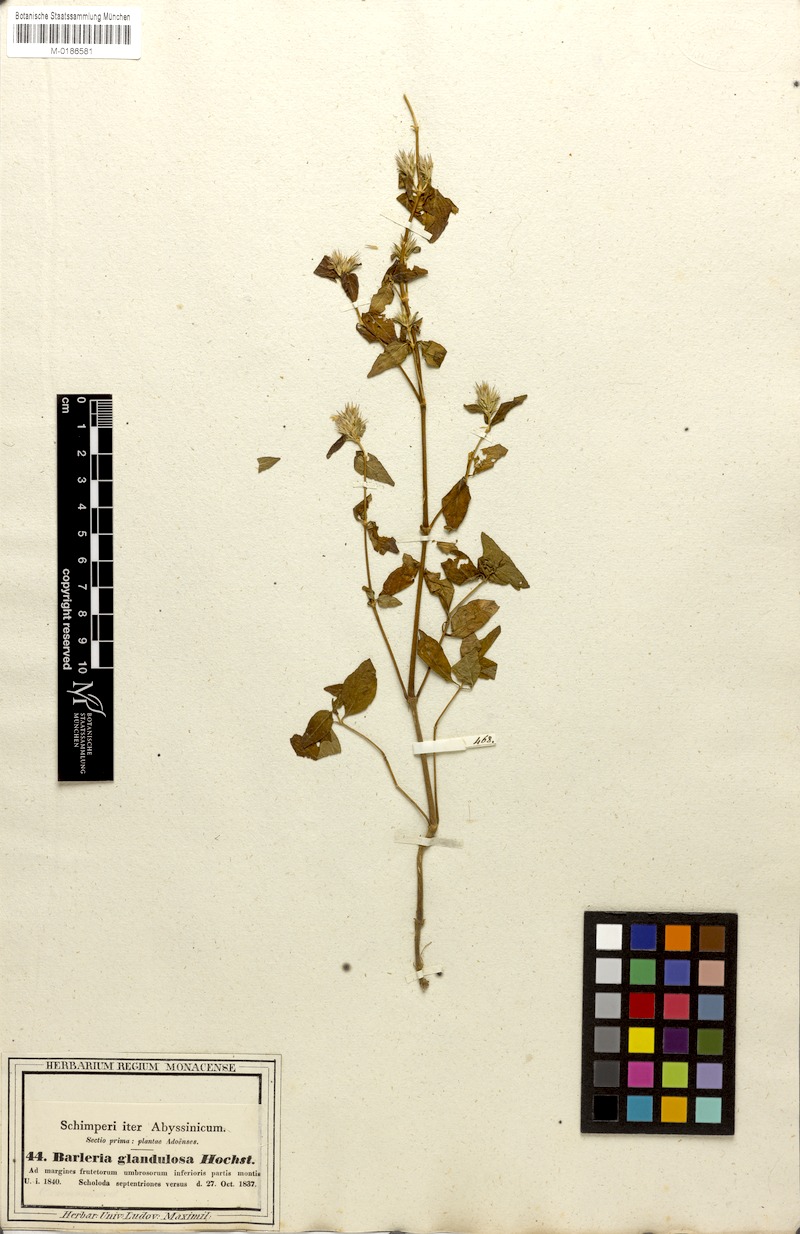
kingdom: Plantae
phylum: Tracheophyta
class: Magnoliopsida
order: Lamiales
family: Acanthaceae
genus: Lepidagathis
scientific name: Lepidagathis glandulosa
